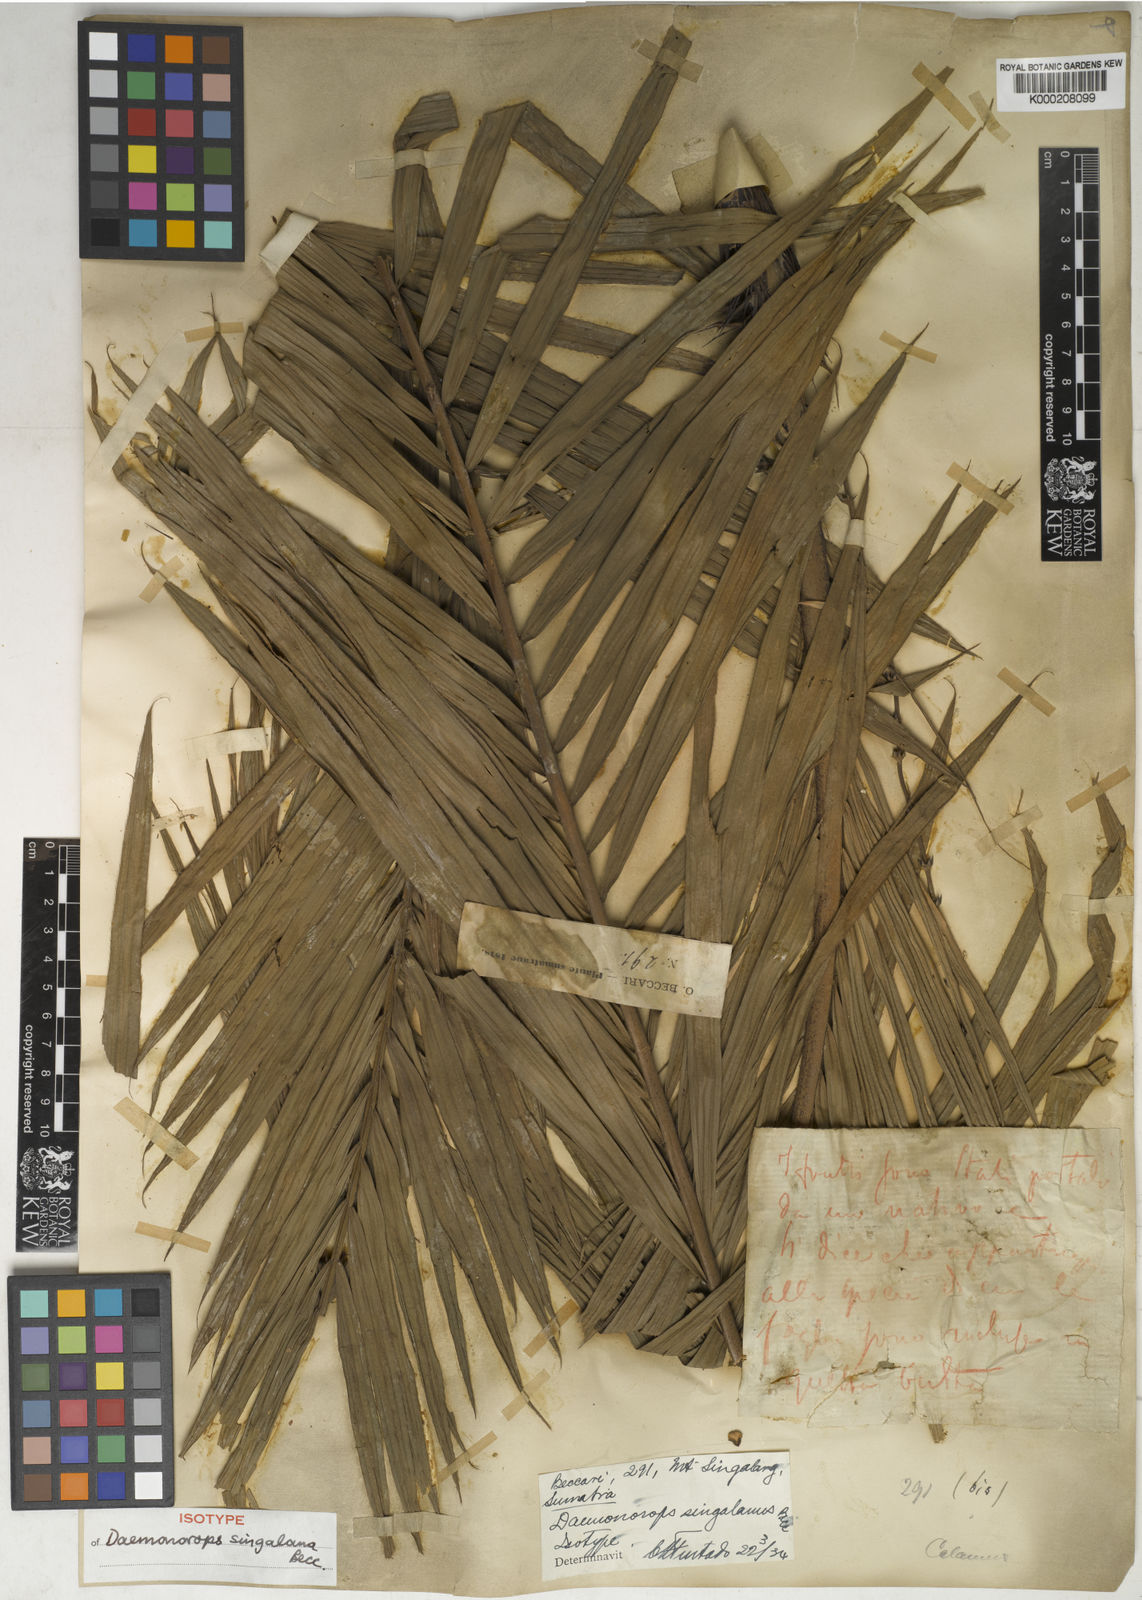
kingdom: Plantae
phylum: Tracheophyta
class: Liliopsida
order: Arecales
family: Arecaceae
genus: Calamus
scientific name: Calamus melanochaetes
